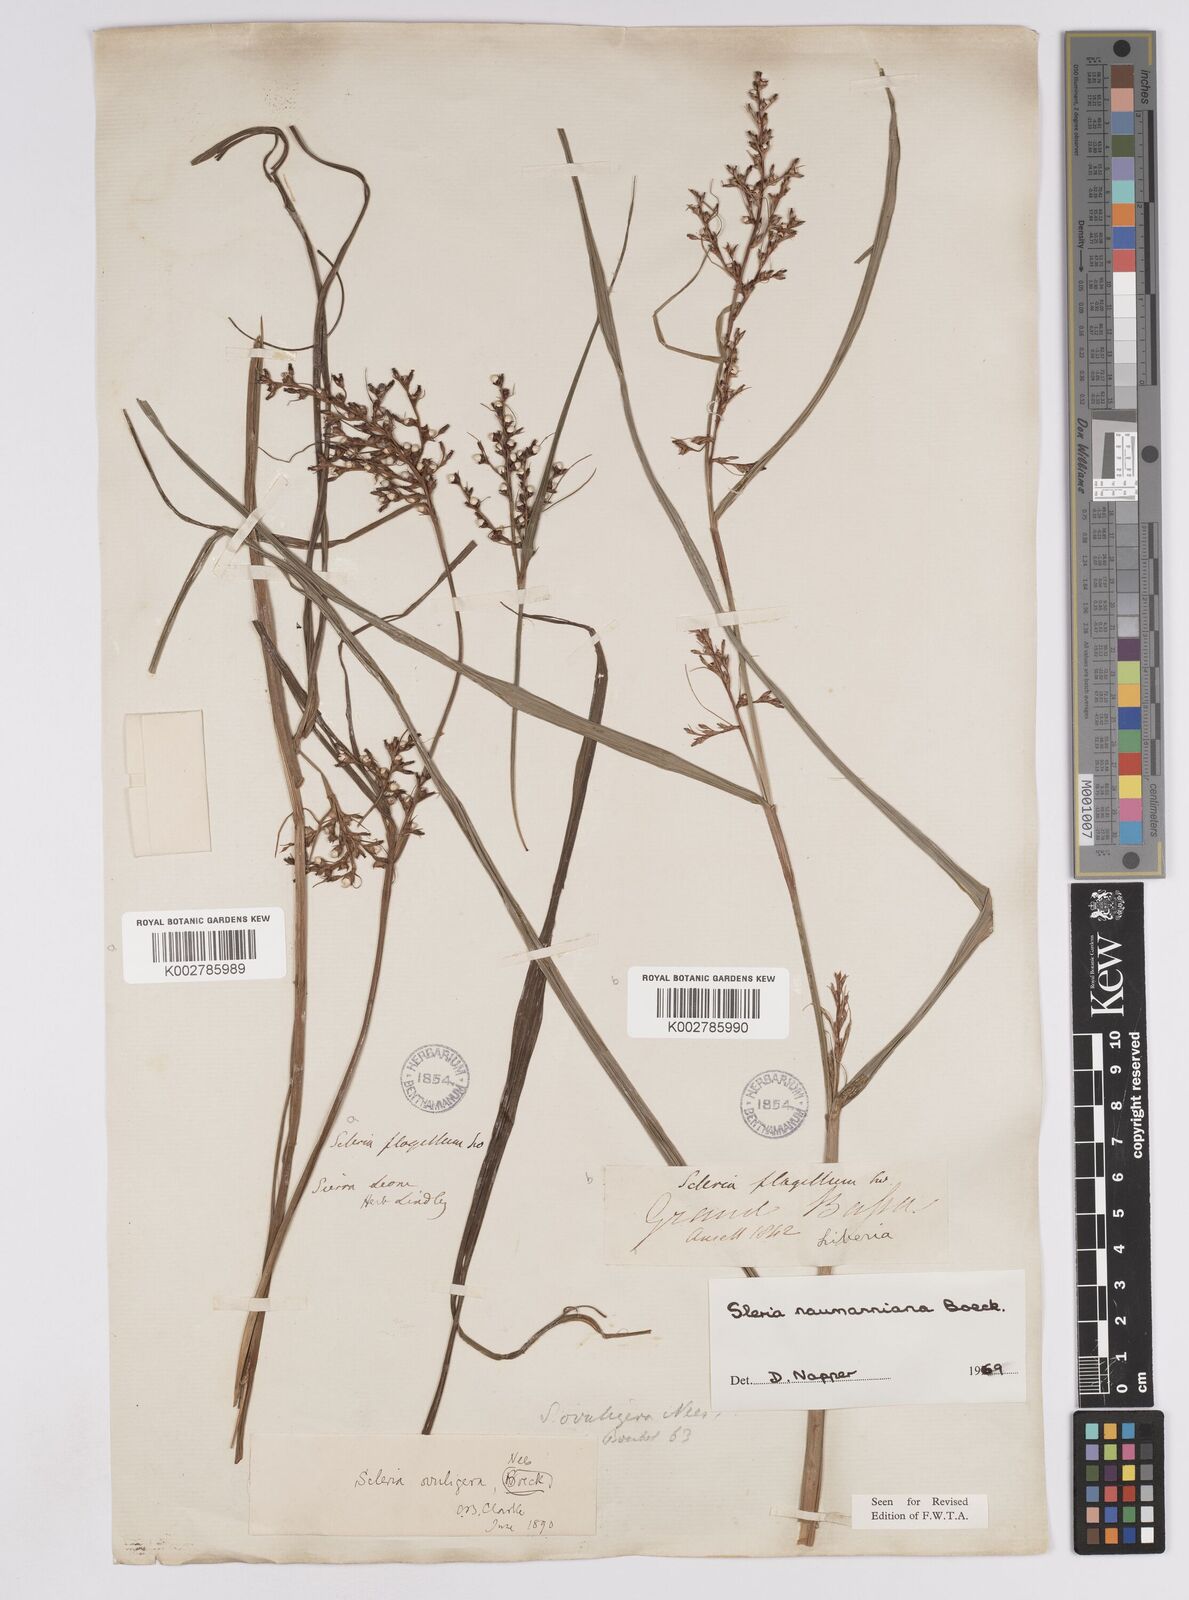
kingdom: Plantae
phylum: Tracheophyta
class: Liliopsida
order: Poales
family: Cyperaceae
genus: Scleria
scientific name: Scleria naumanniana
